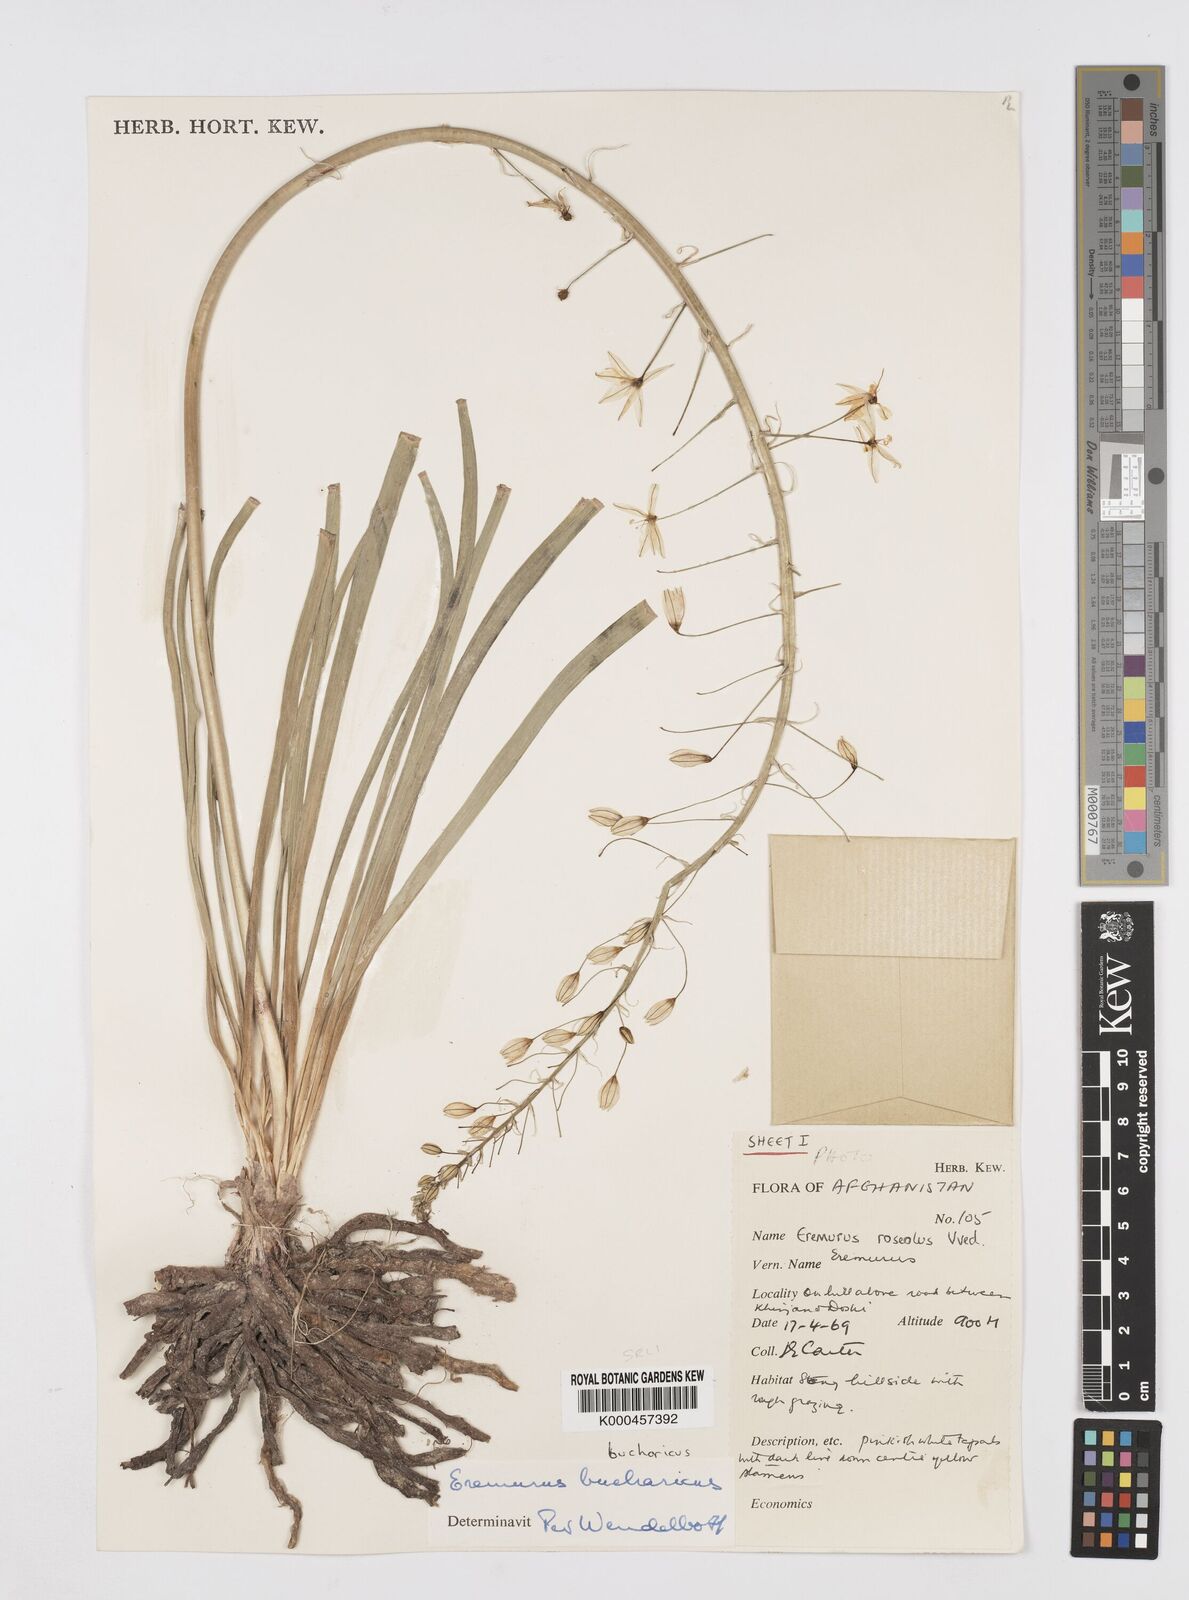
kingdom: Plantae
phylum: Tracheophyta
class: Liliopsida
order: Asparagales
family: Asphodelaceae
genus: Eremurus
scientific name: Eremurus bucharicus
